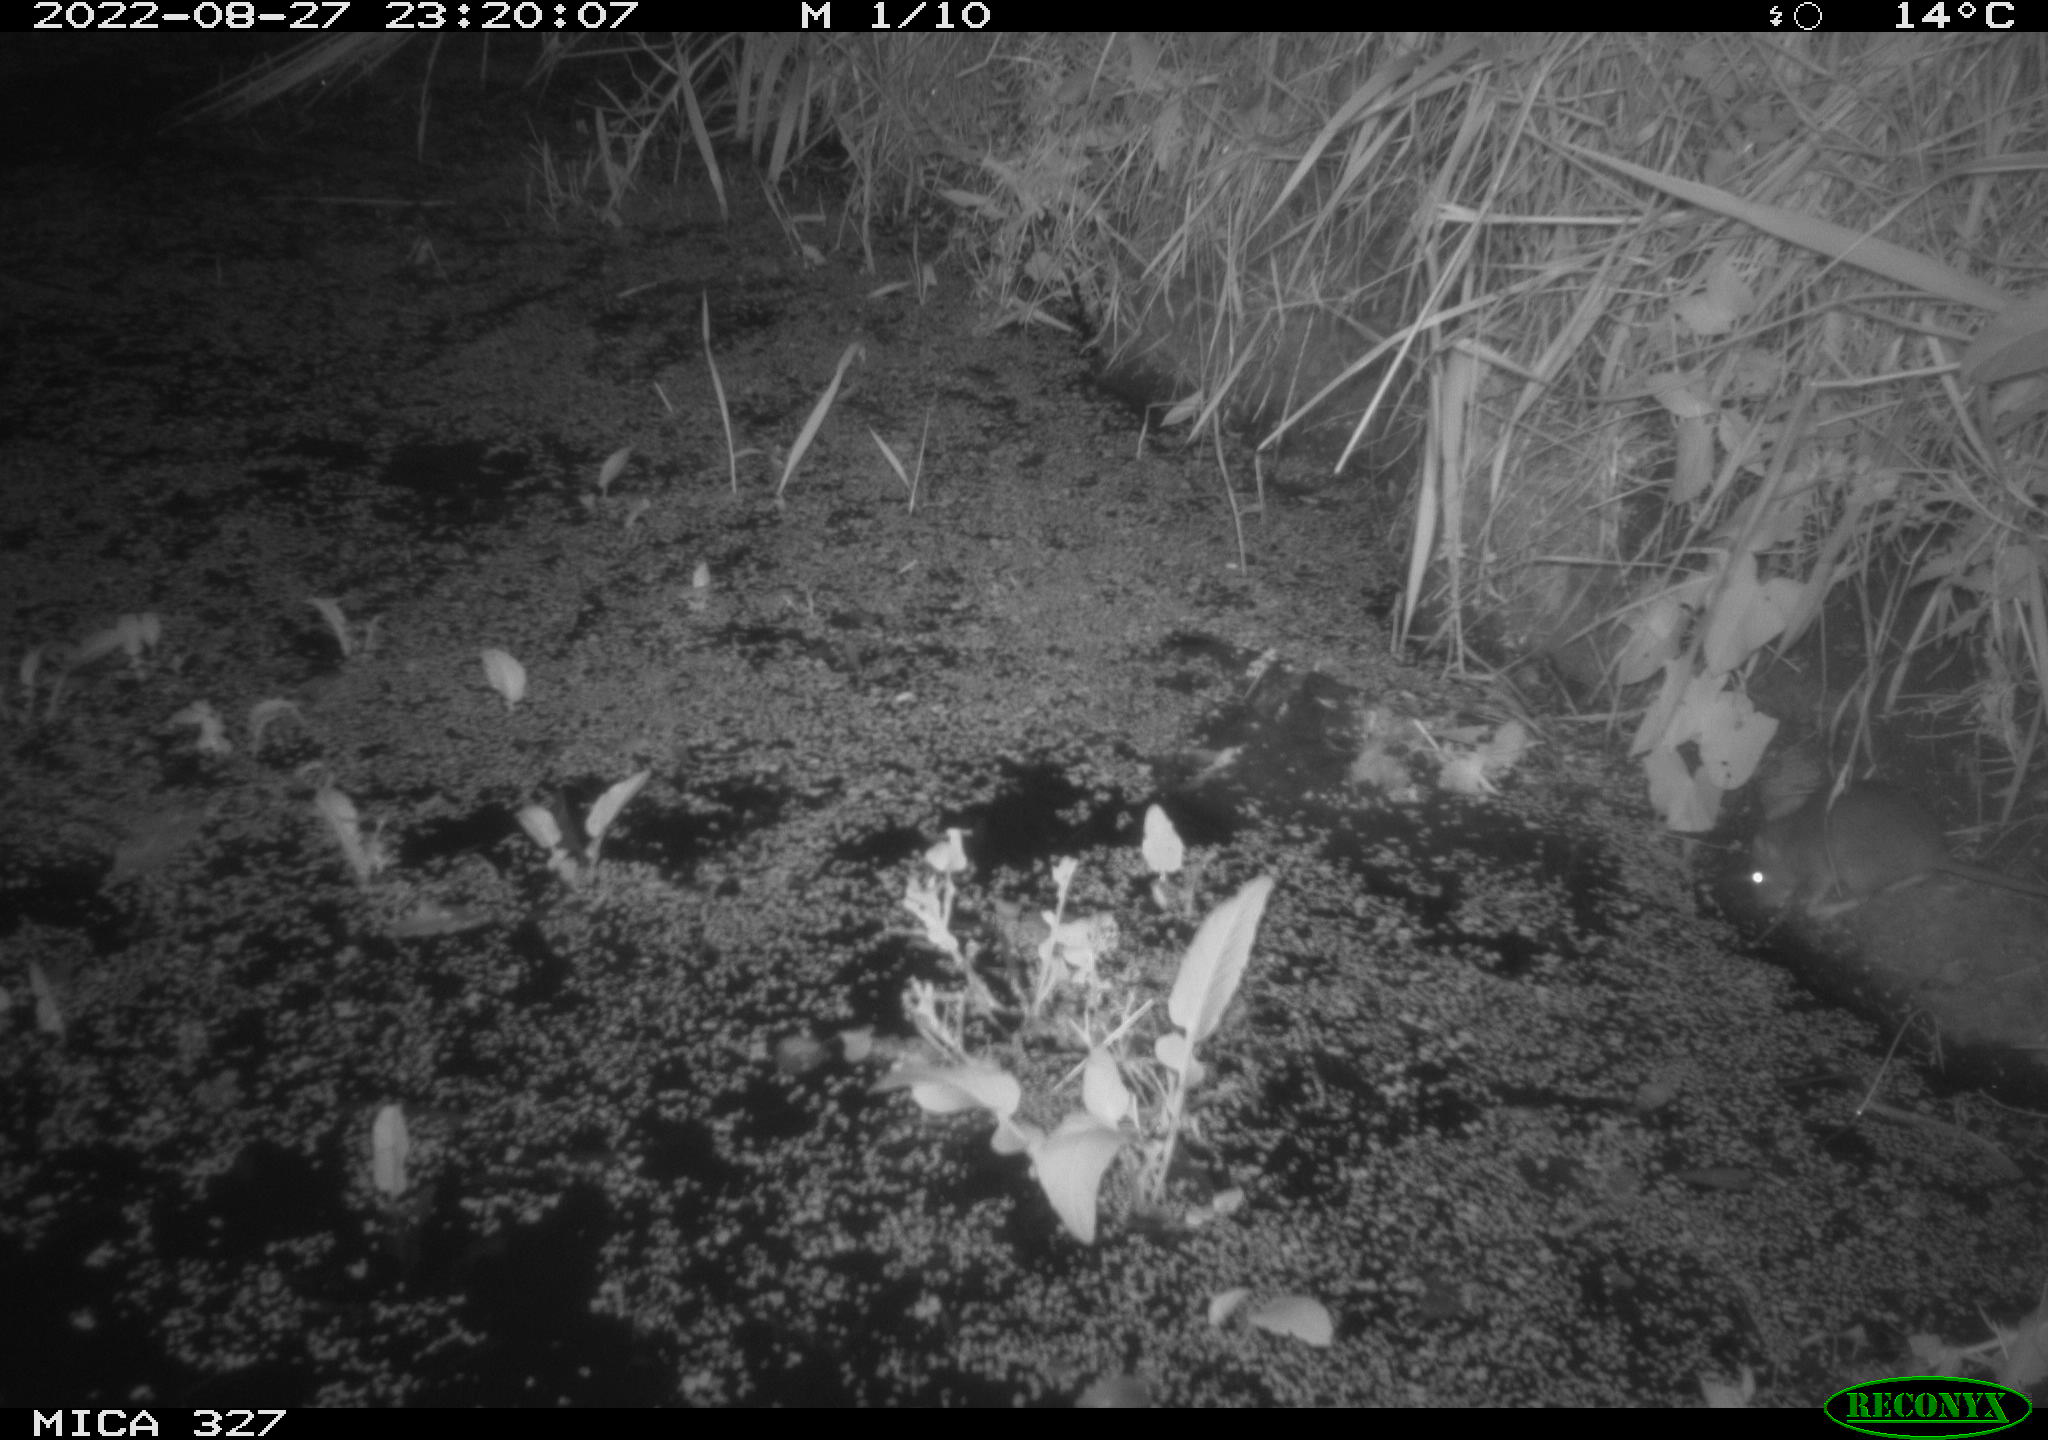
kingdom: Animalia
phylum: Chordata
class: Mammalia
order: Rodentia
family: Muridae
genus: Rattus
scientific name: Rattus norvegicus
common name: Brown rat
